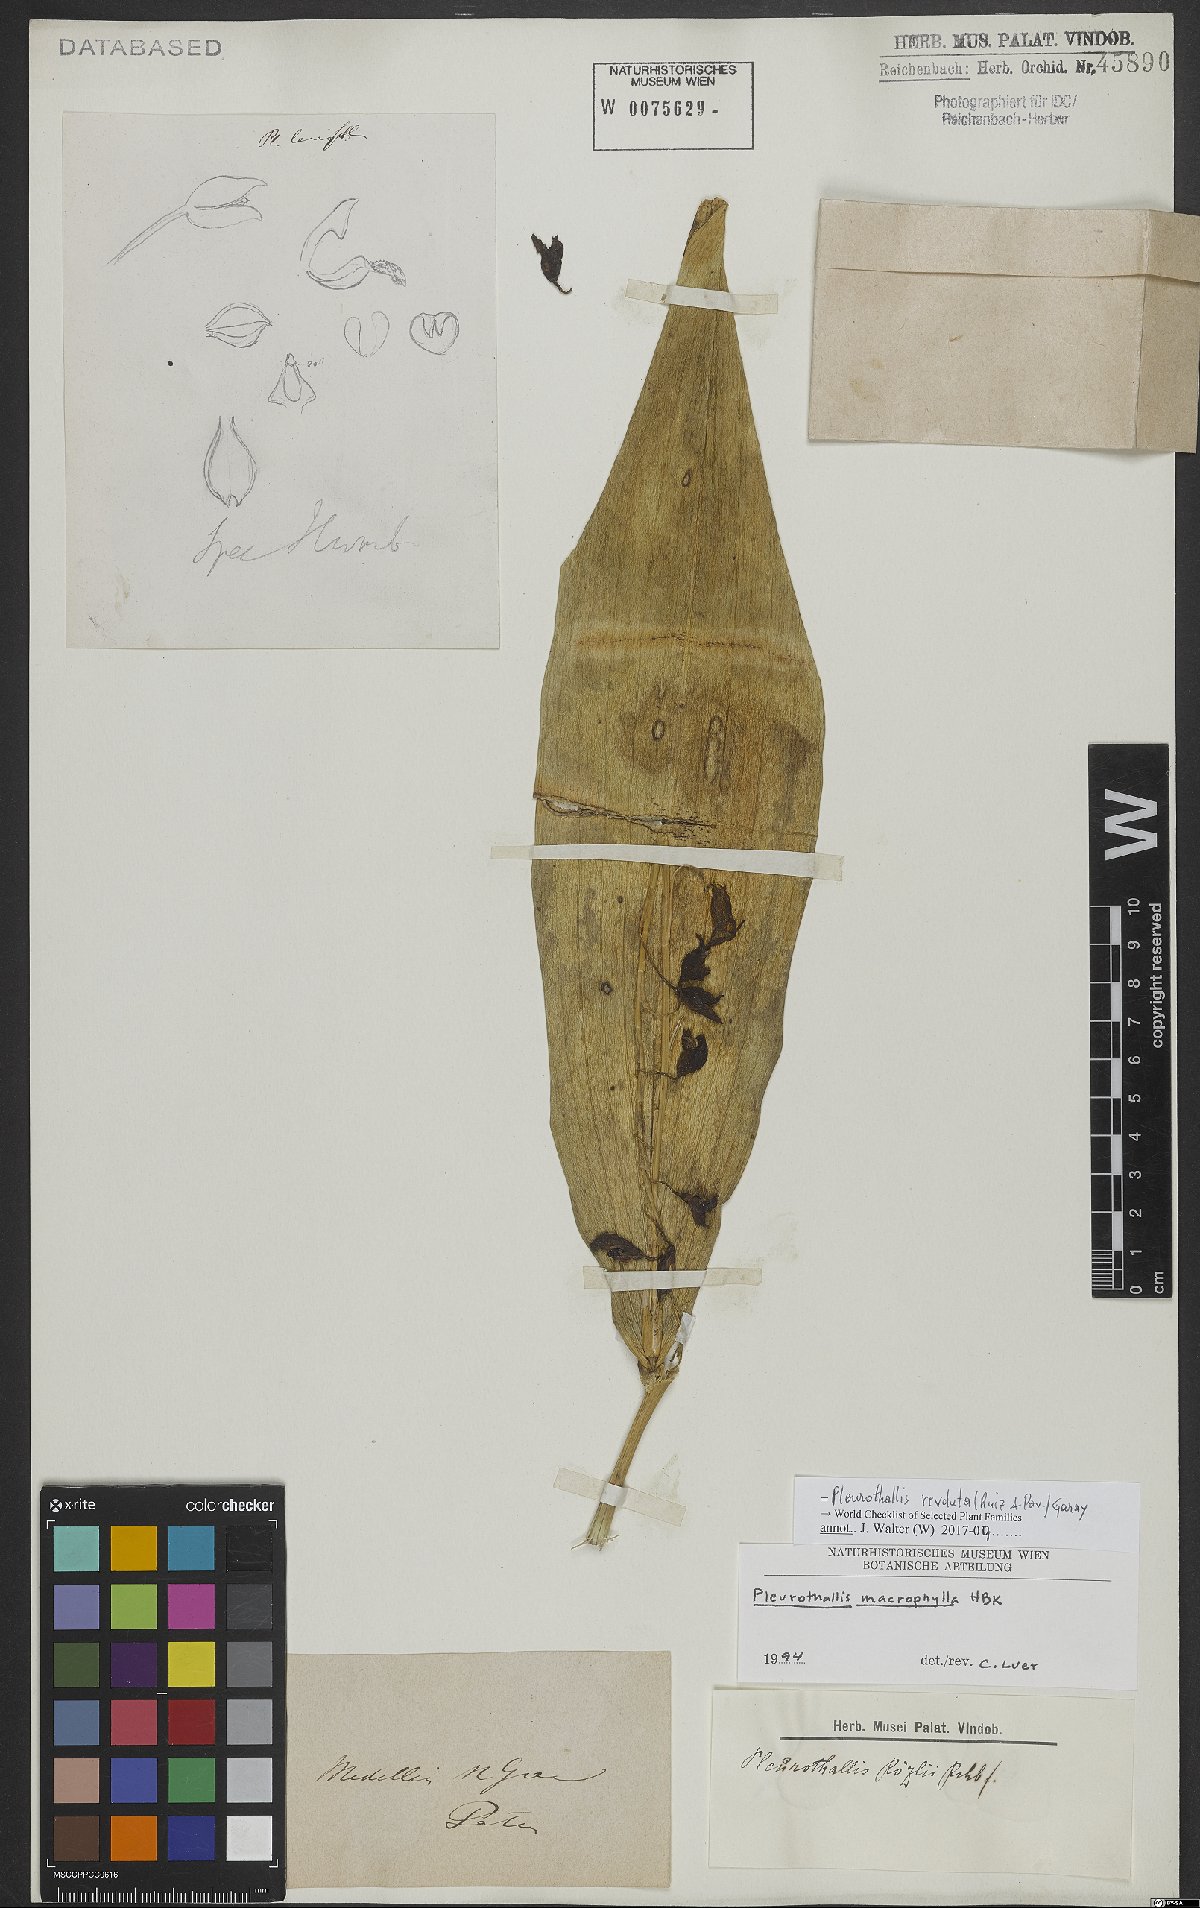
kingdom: Plantae
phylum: Tracheophyta
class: Liliopsida
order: Asparagales
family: Orchidaceae
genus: Pleurothallis
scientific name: Pleurothallis revoluta
